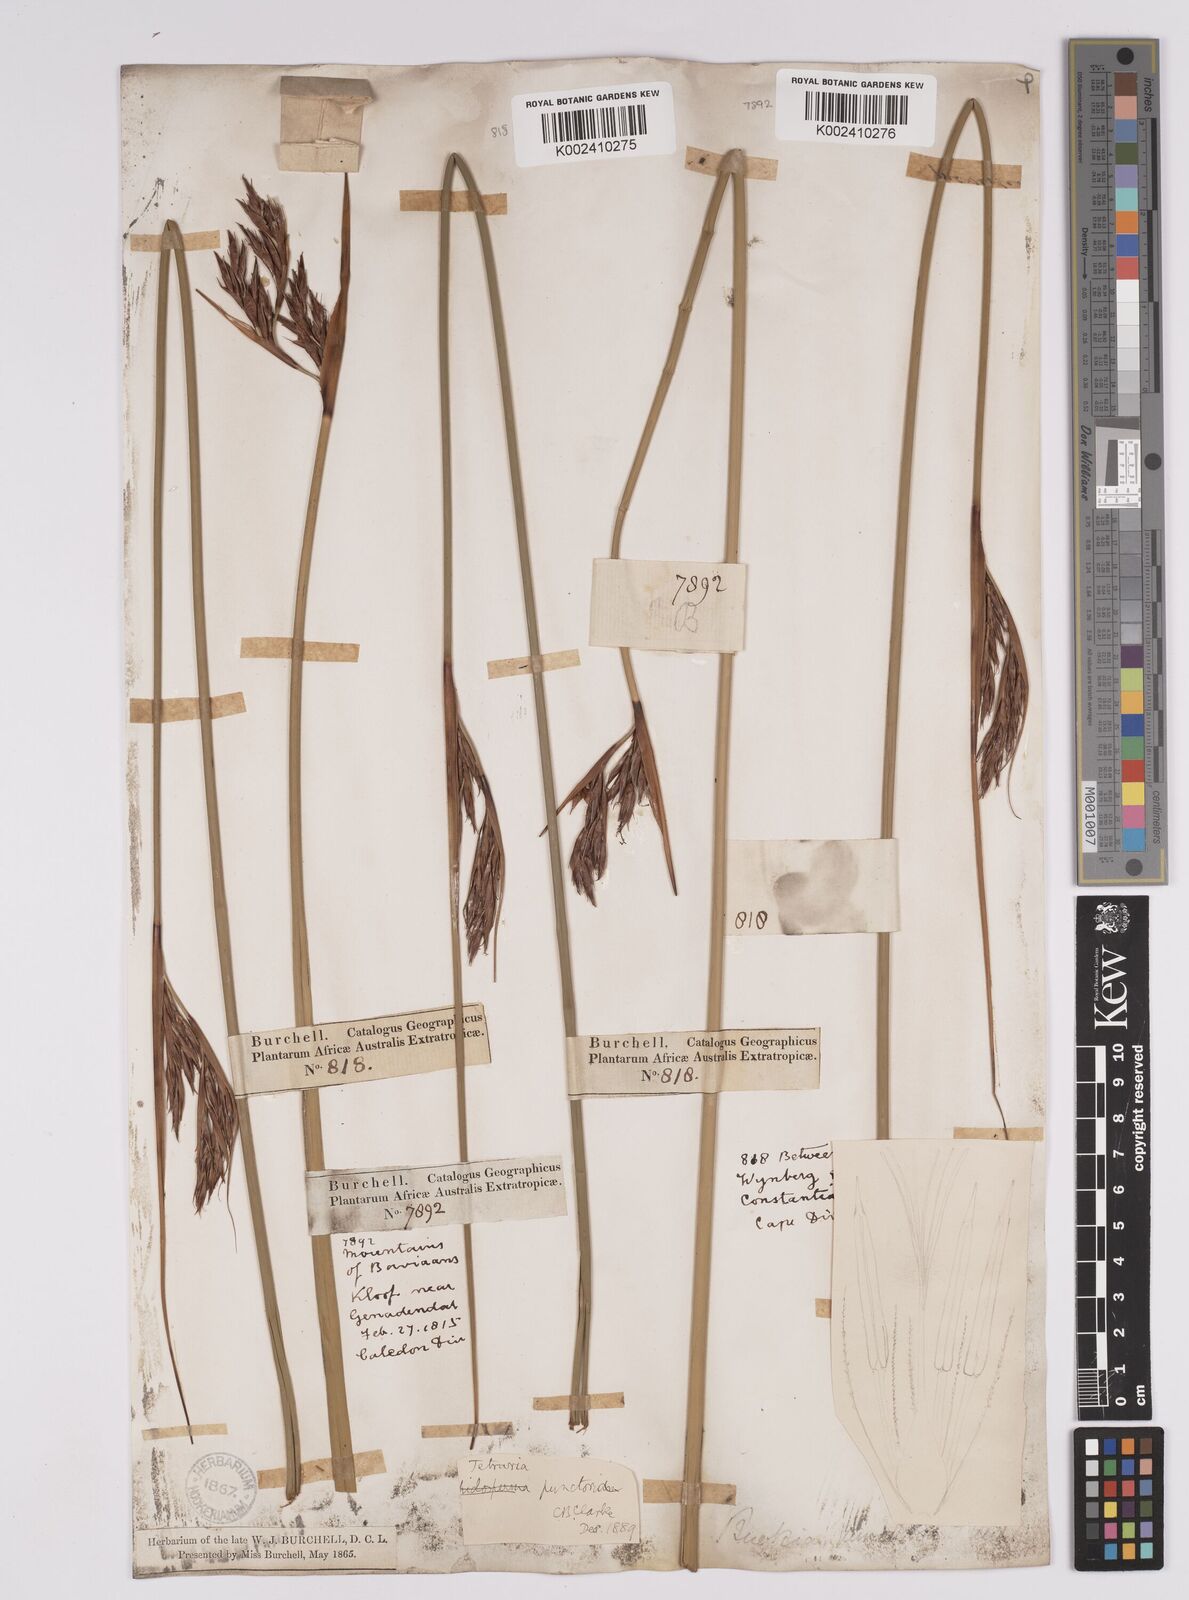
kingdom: Plantae
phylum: Tracheophyta
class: Liliopsida
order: Poales
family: Cyperaceae
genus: Neesenbeckia
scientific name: Neesenbeckia punctoria
